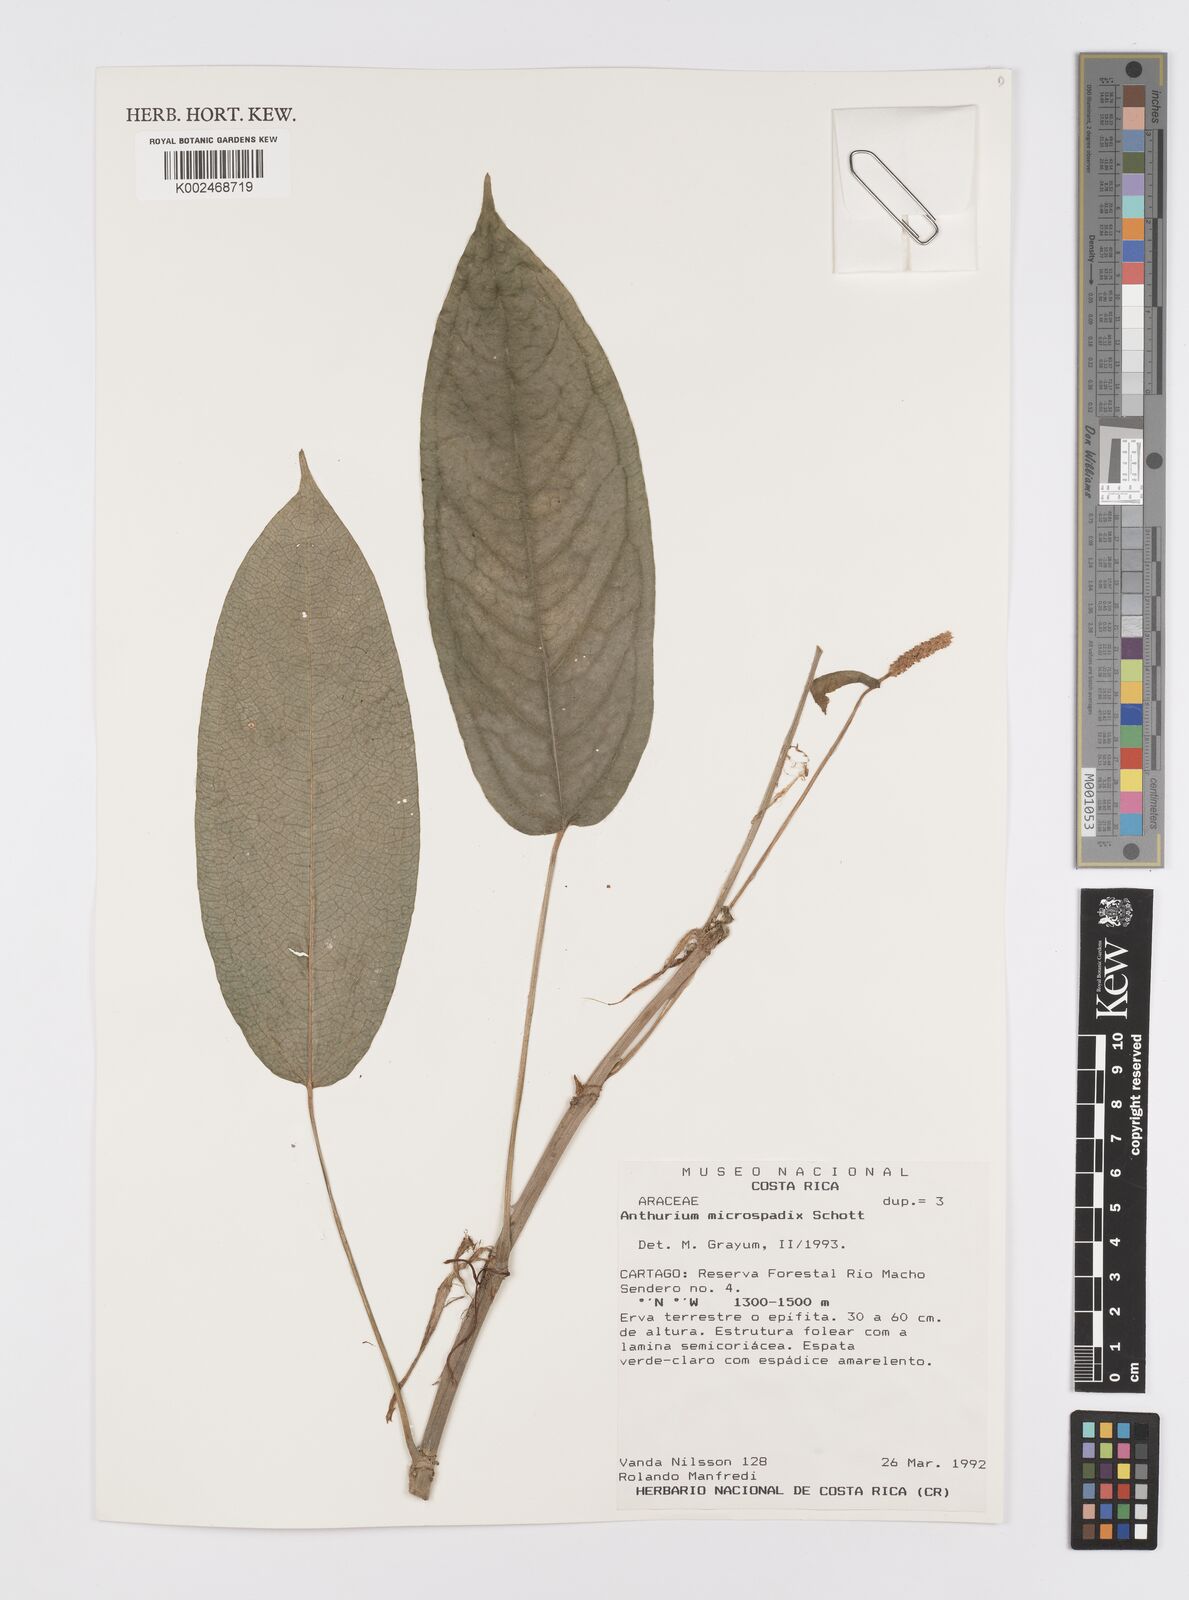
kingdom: Plantae
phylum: Tracheophyta
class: Liliopsida
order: Alismatales
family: Araceae
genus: Anthurium
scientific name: Anthurium microspadix
